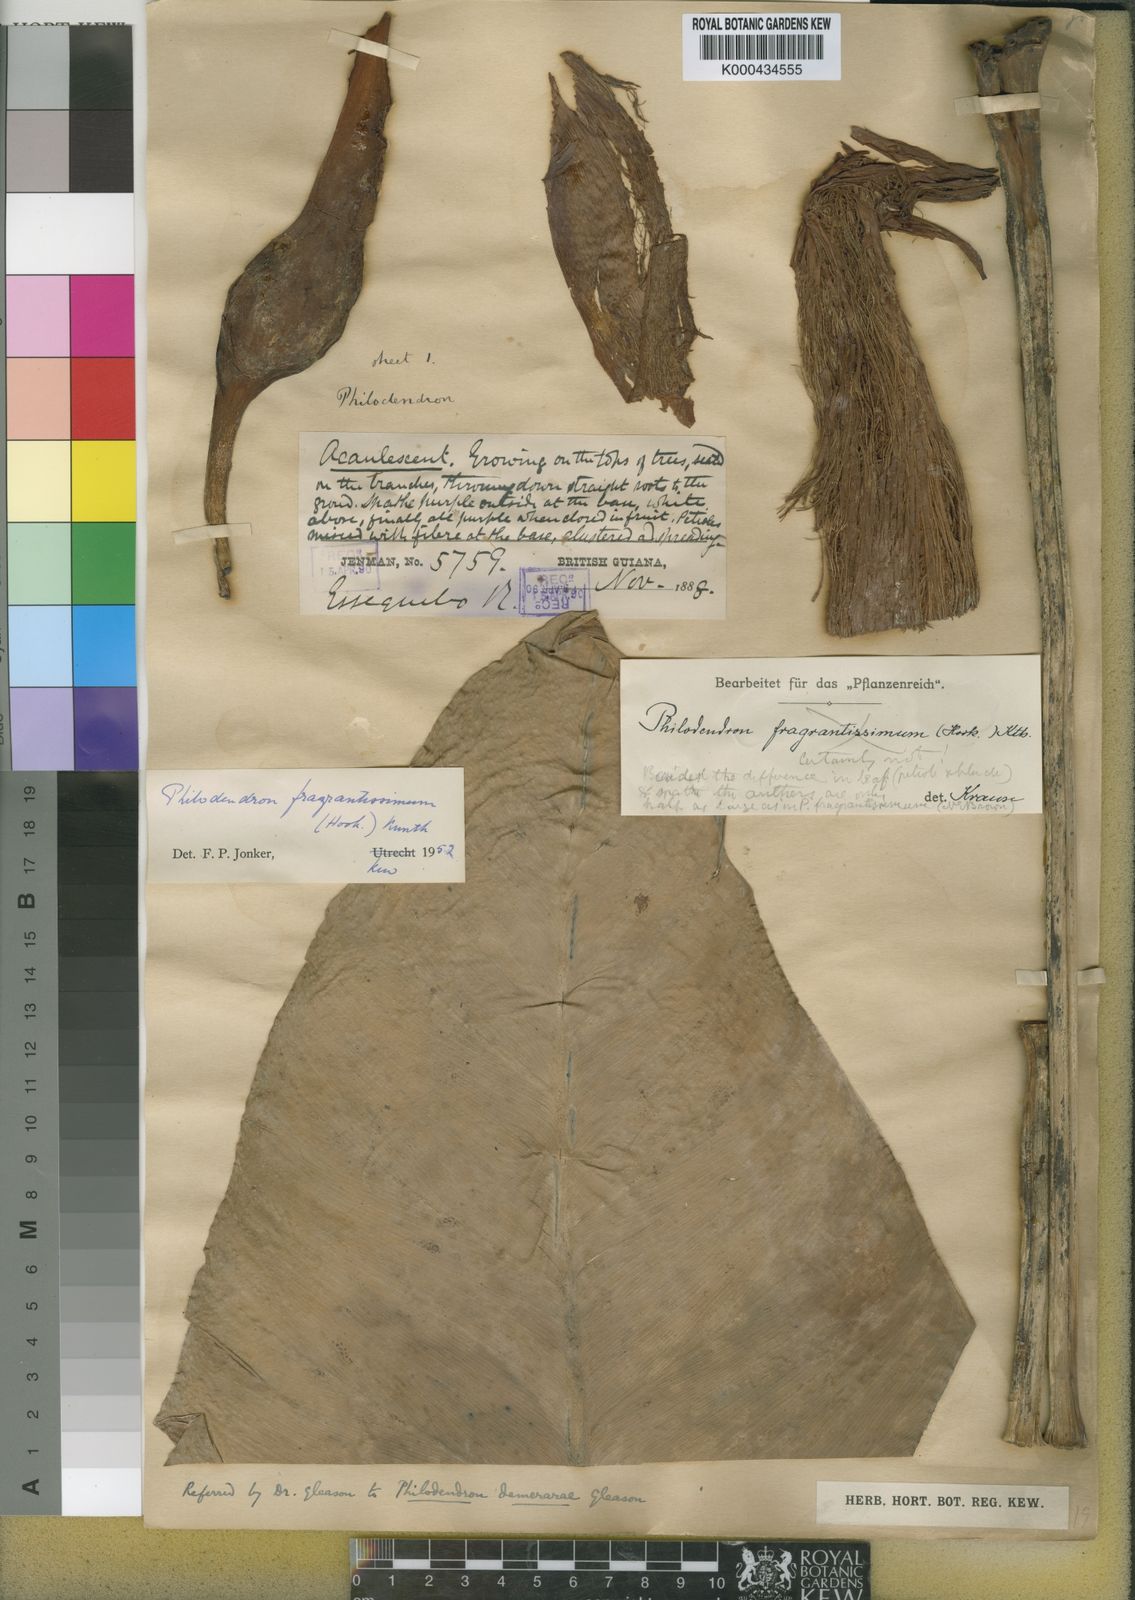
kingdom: Plantae
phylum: Tracheophyta
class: Liliopsida
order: Alismatales
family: Araceae
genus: Philodendron
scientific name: Philodendron
